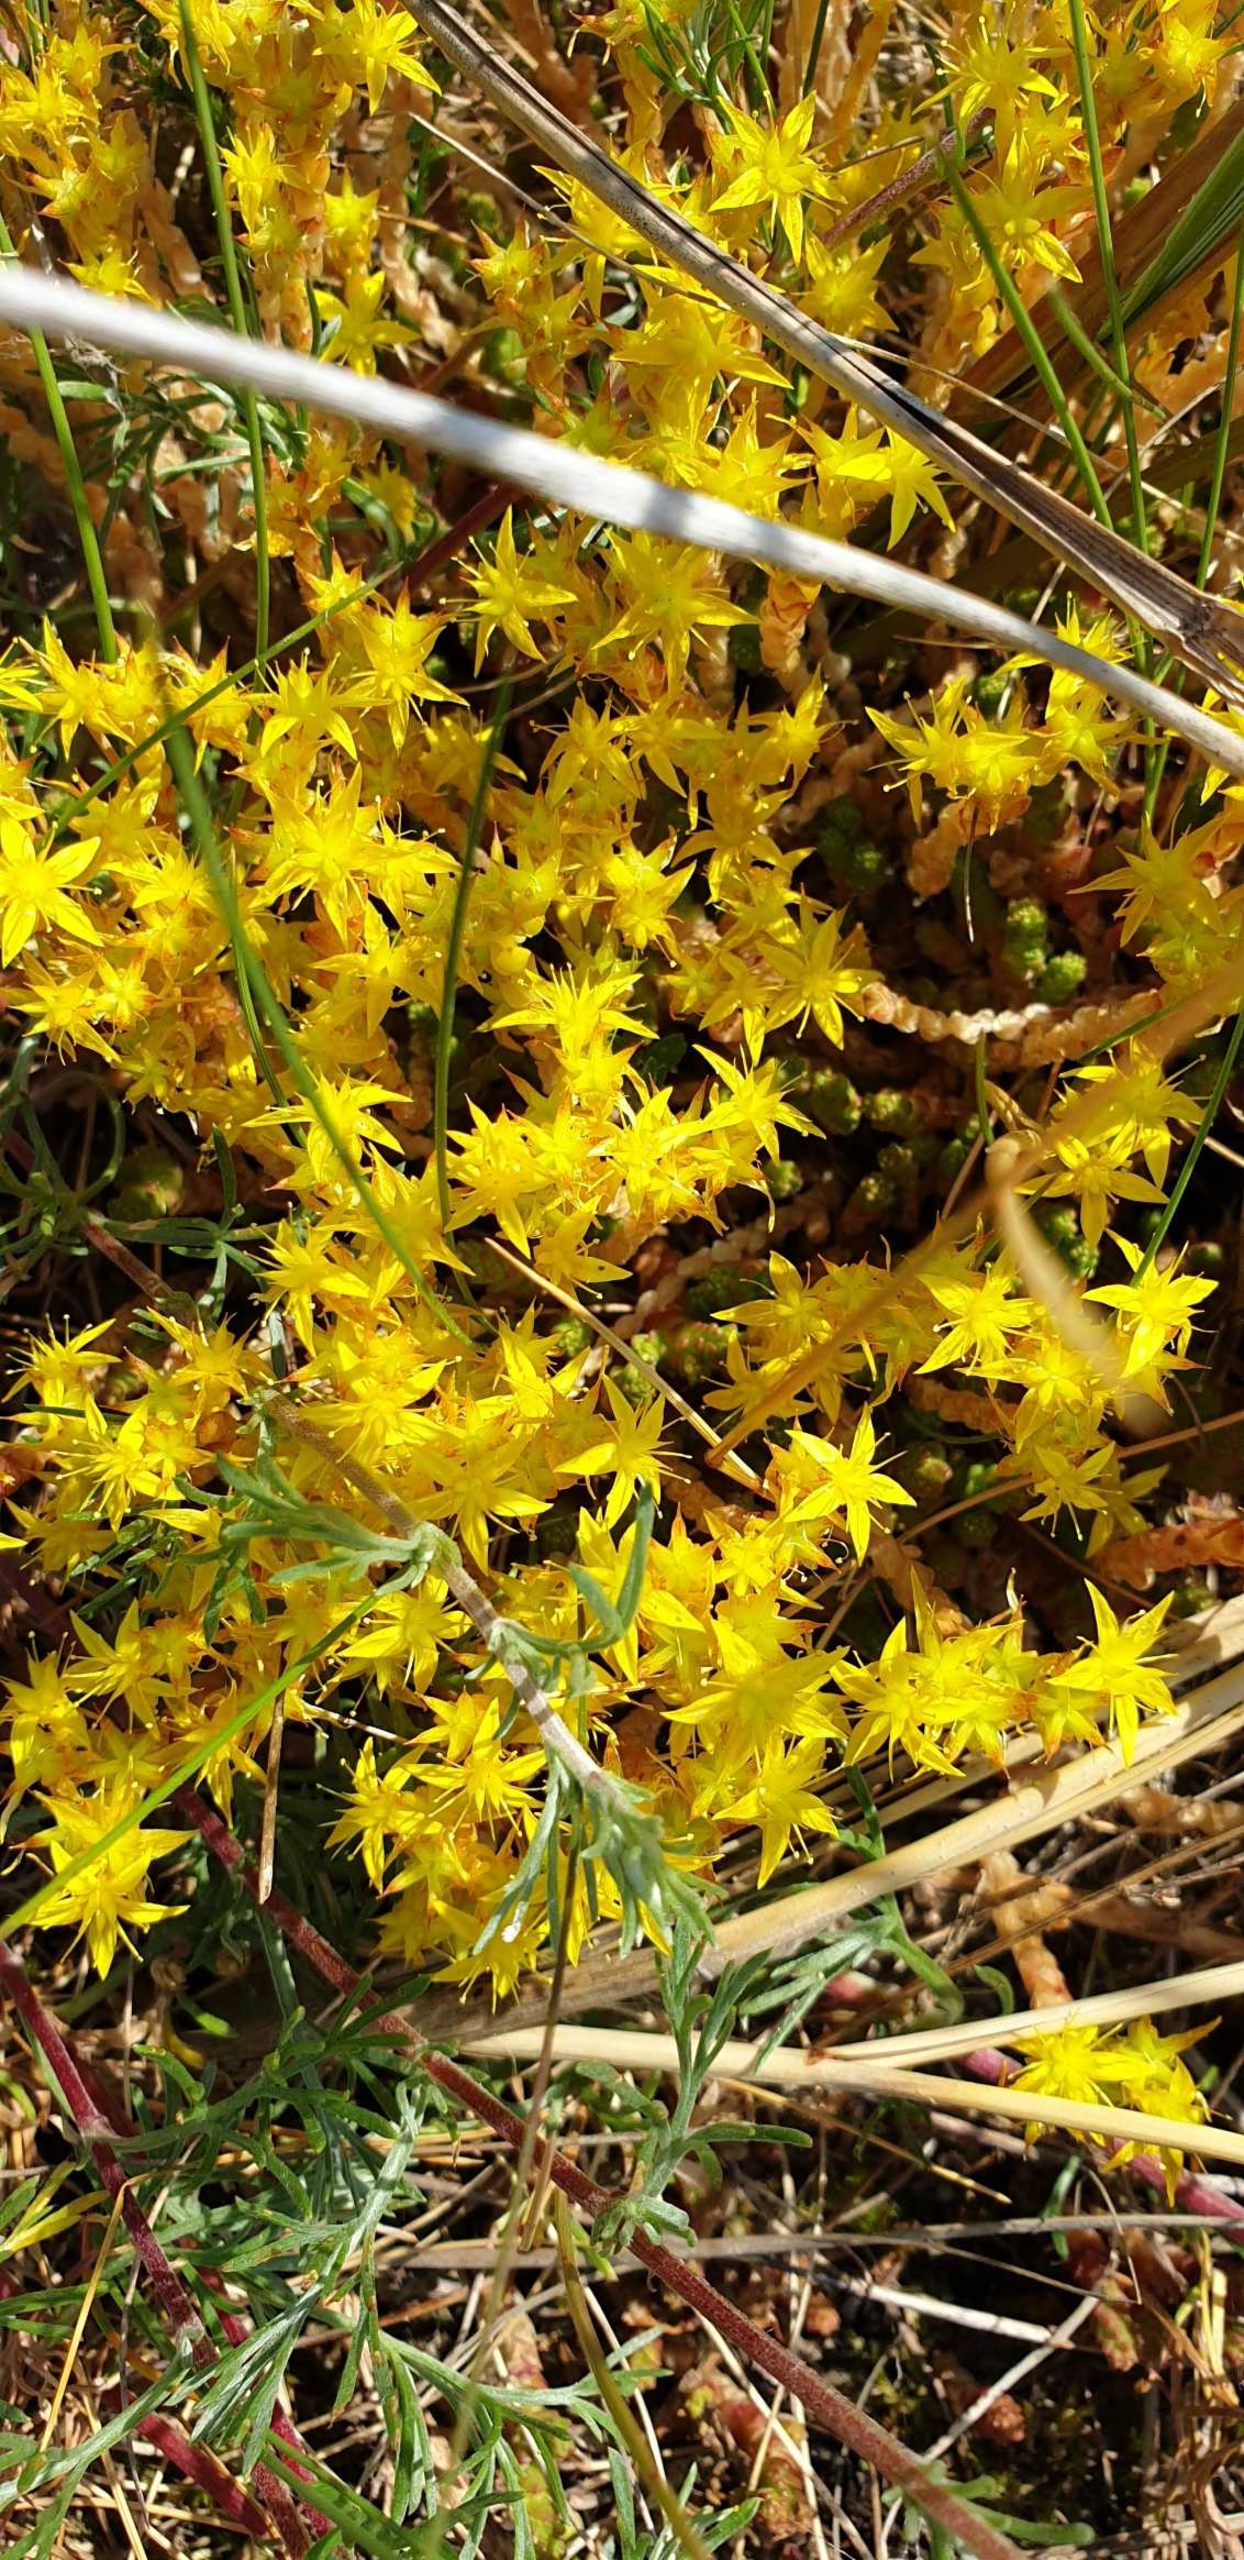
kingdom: Plantae
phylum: Tracheophyta
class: Magnoliopsida
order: Saxifragales
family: Crassulaceae
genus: Sedum
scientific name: Sedum acre
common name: Bidende stenurt
